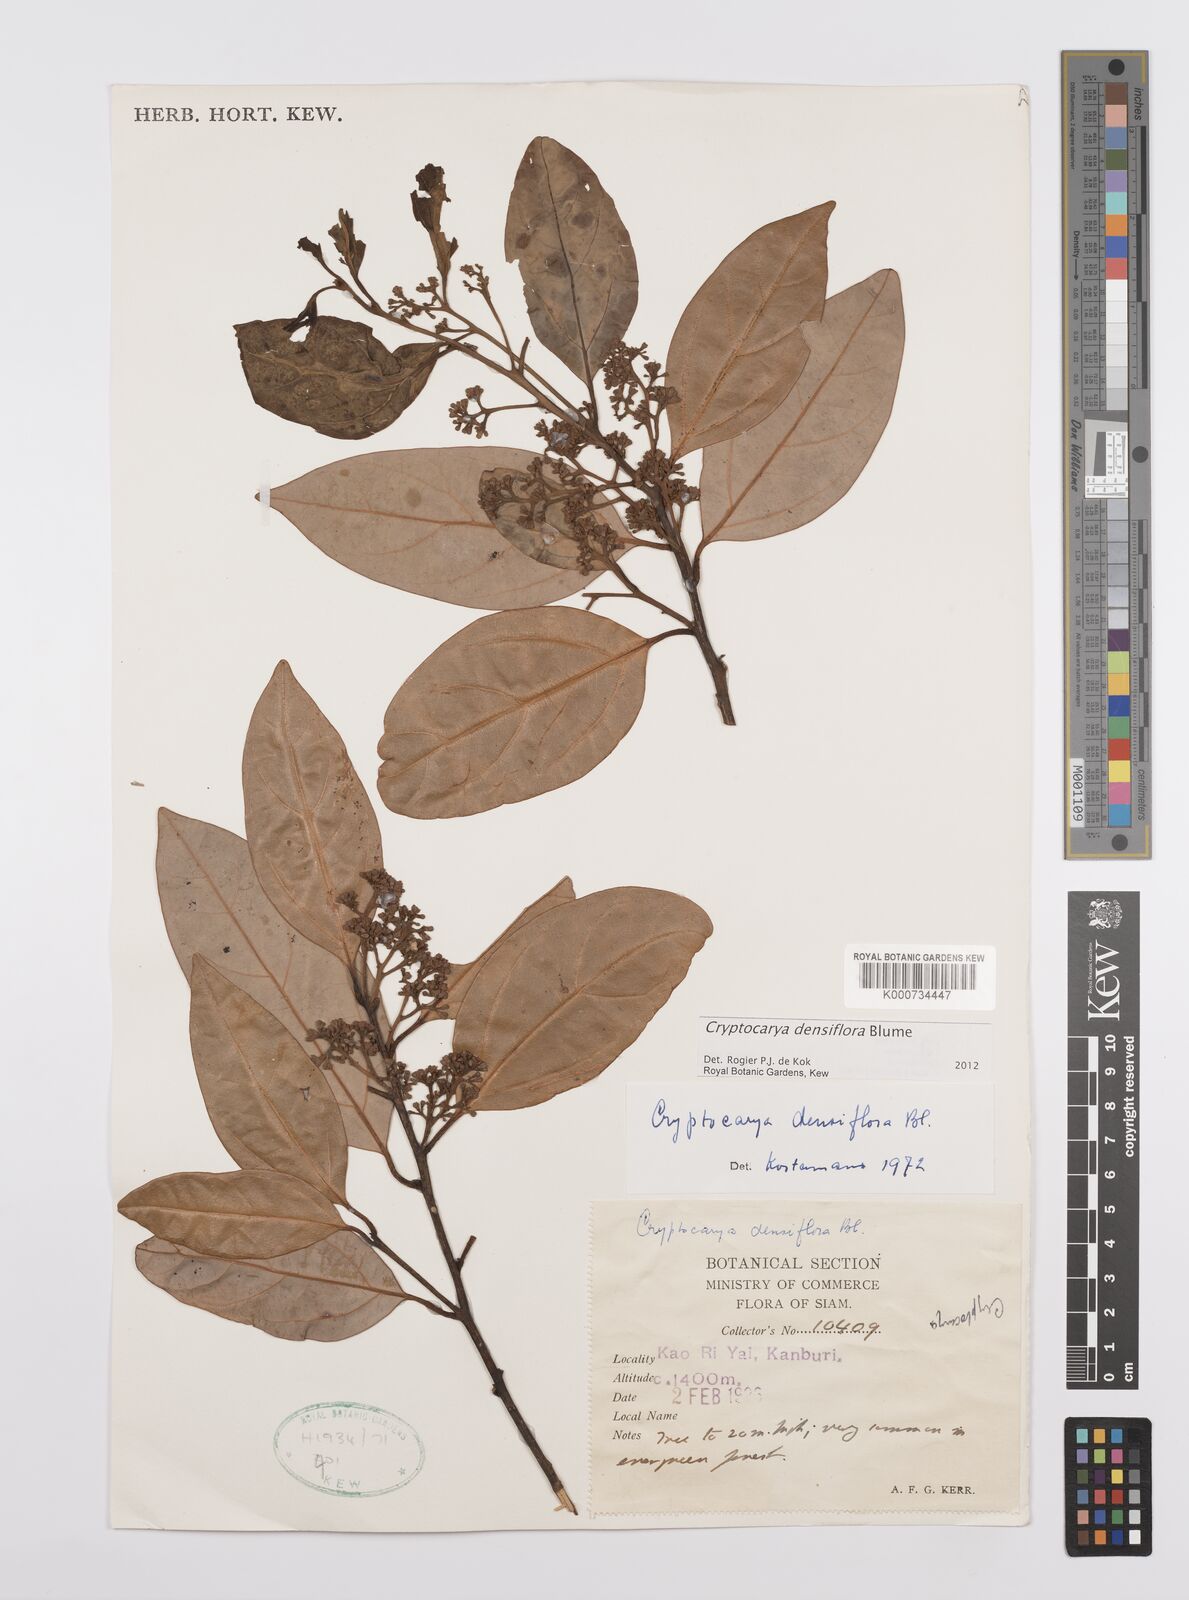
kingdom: Plantae
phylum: Tracheophyta
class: Magnoliopsida
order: Laurales
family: Lauraceae
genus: Cryptocarya
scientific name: Cryptocarya densiflora
